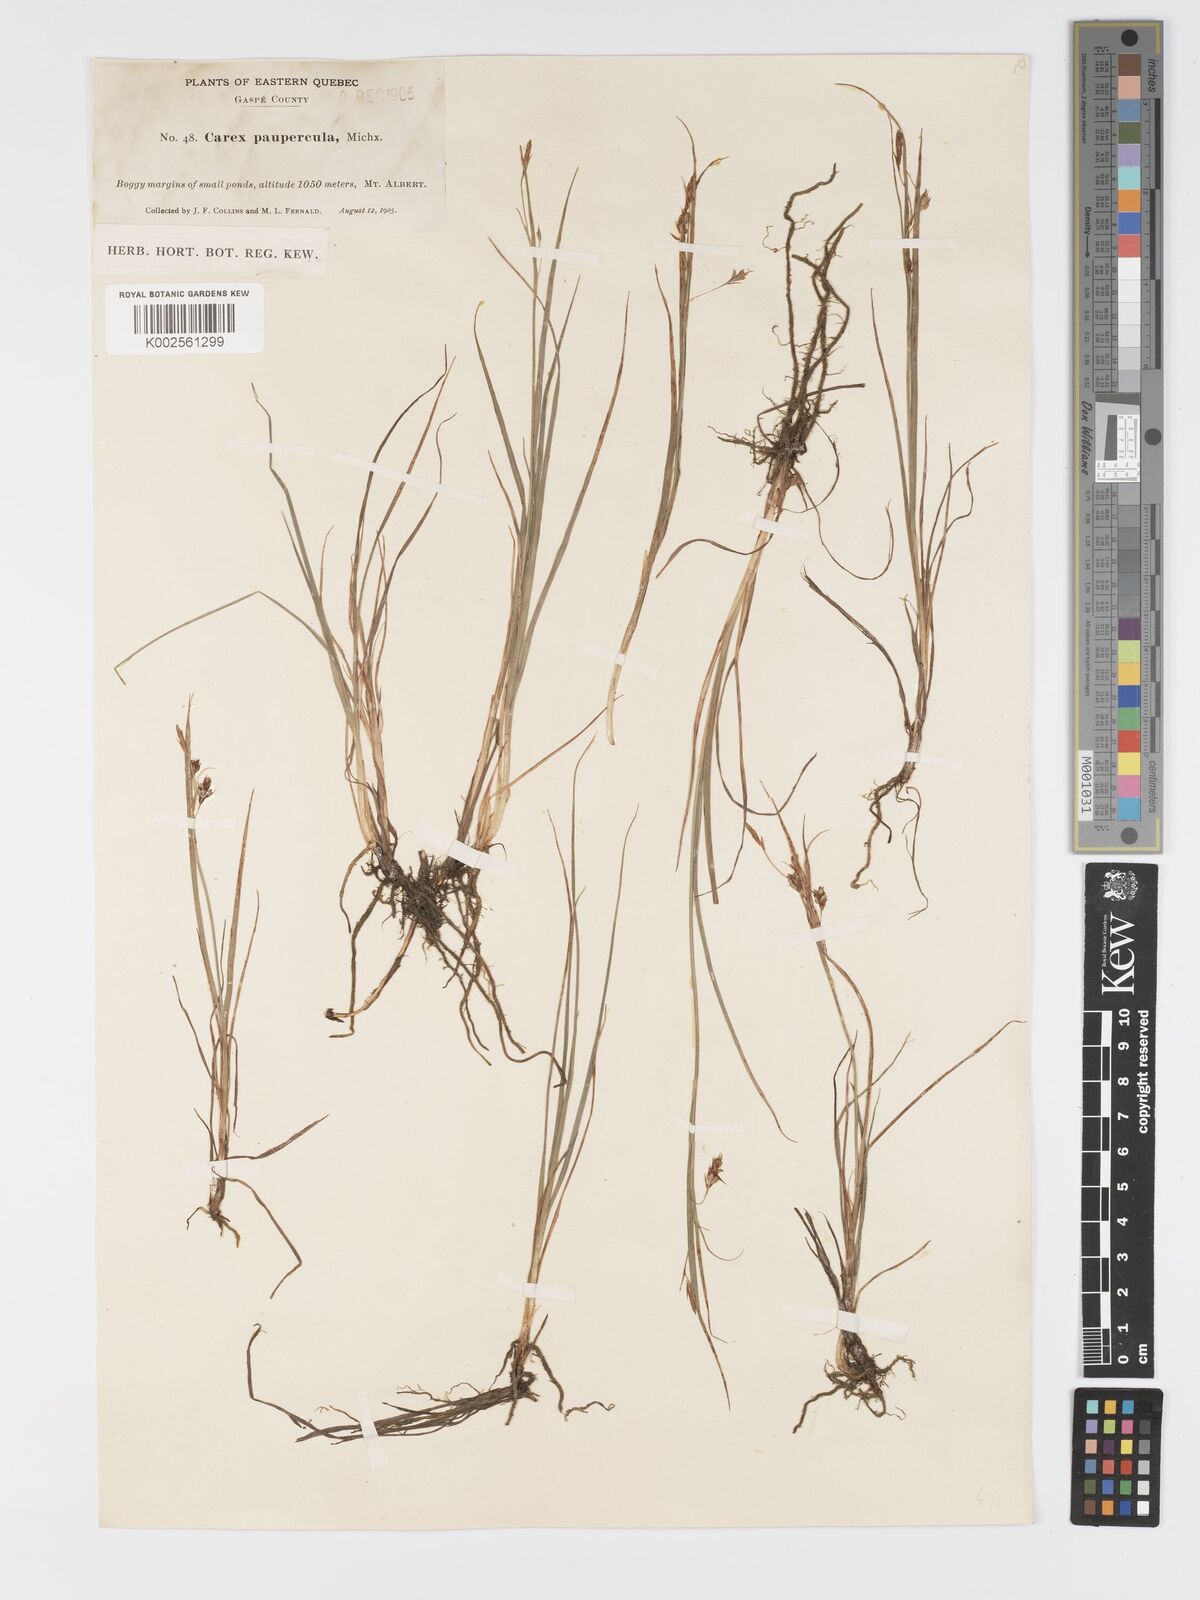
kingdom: Plantae
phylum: Tracheophyta
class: Liliopsida
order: Poales
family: Cyperaceae
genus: Carex
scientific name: Carex magellanica
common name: Bog sedge
